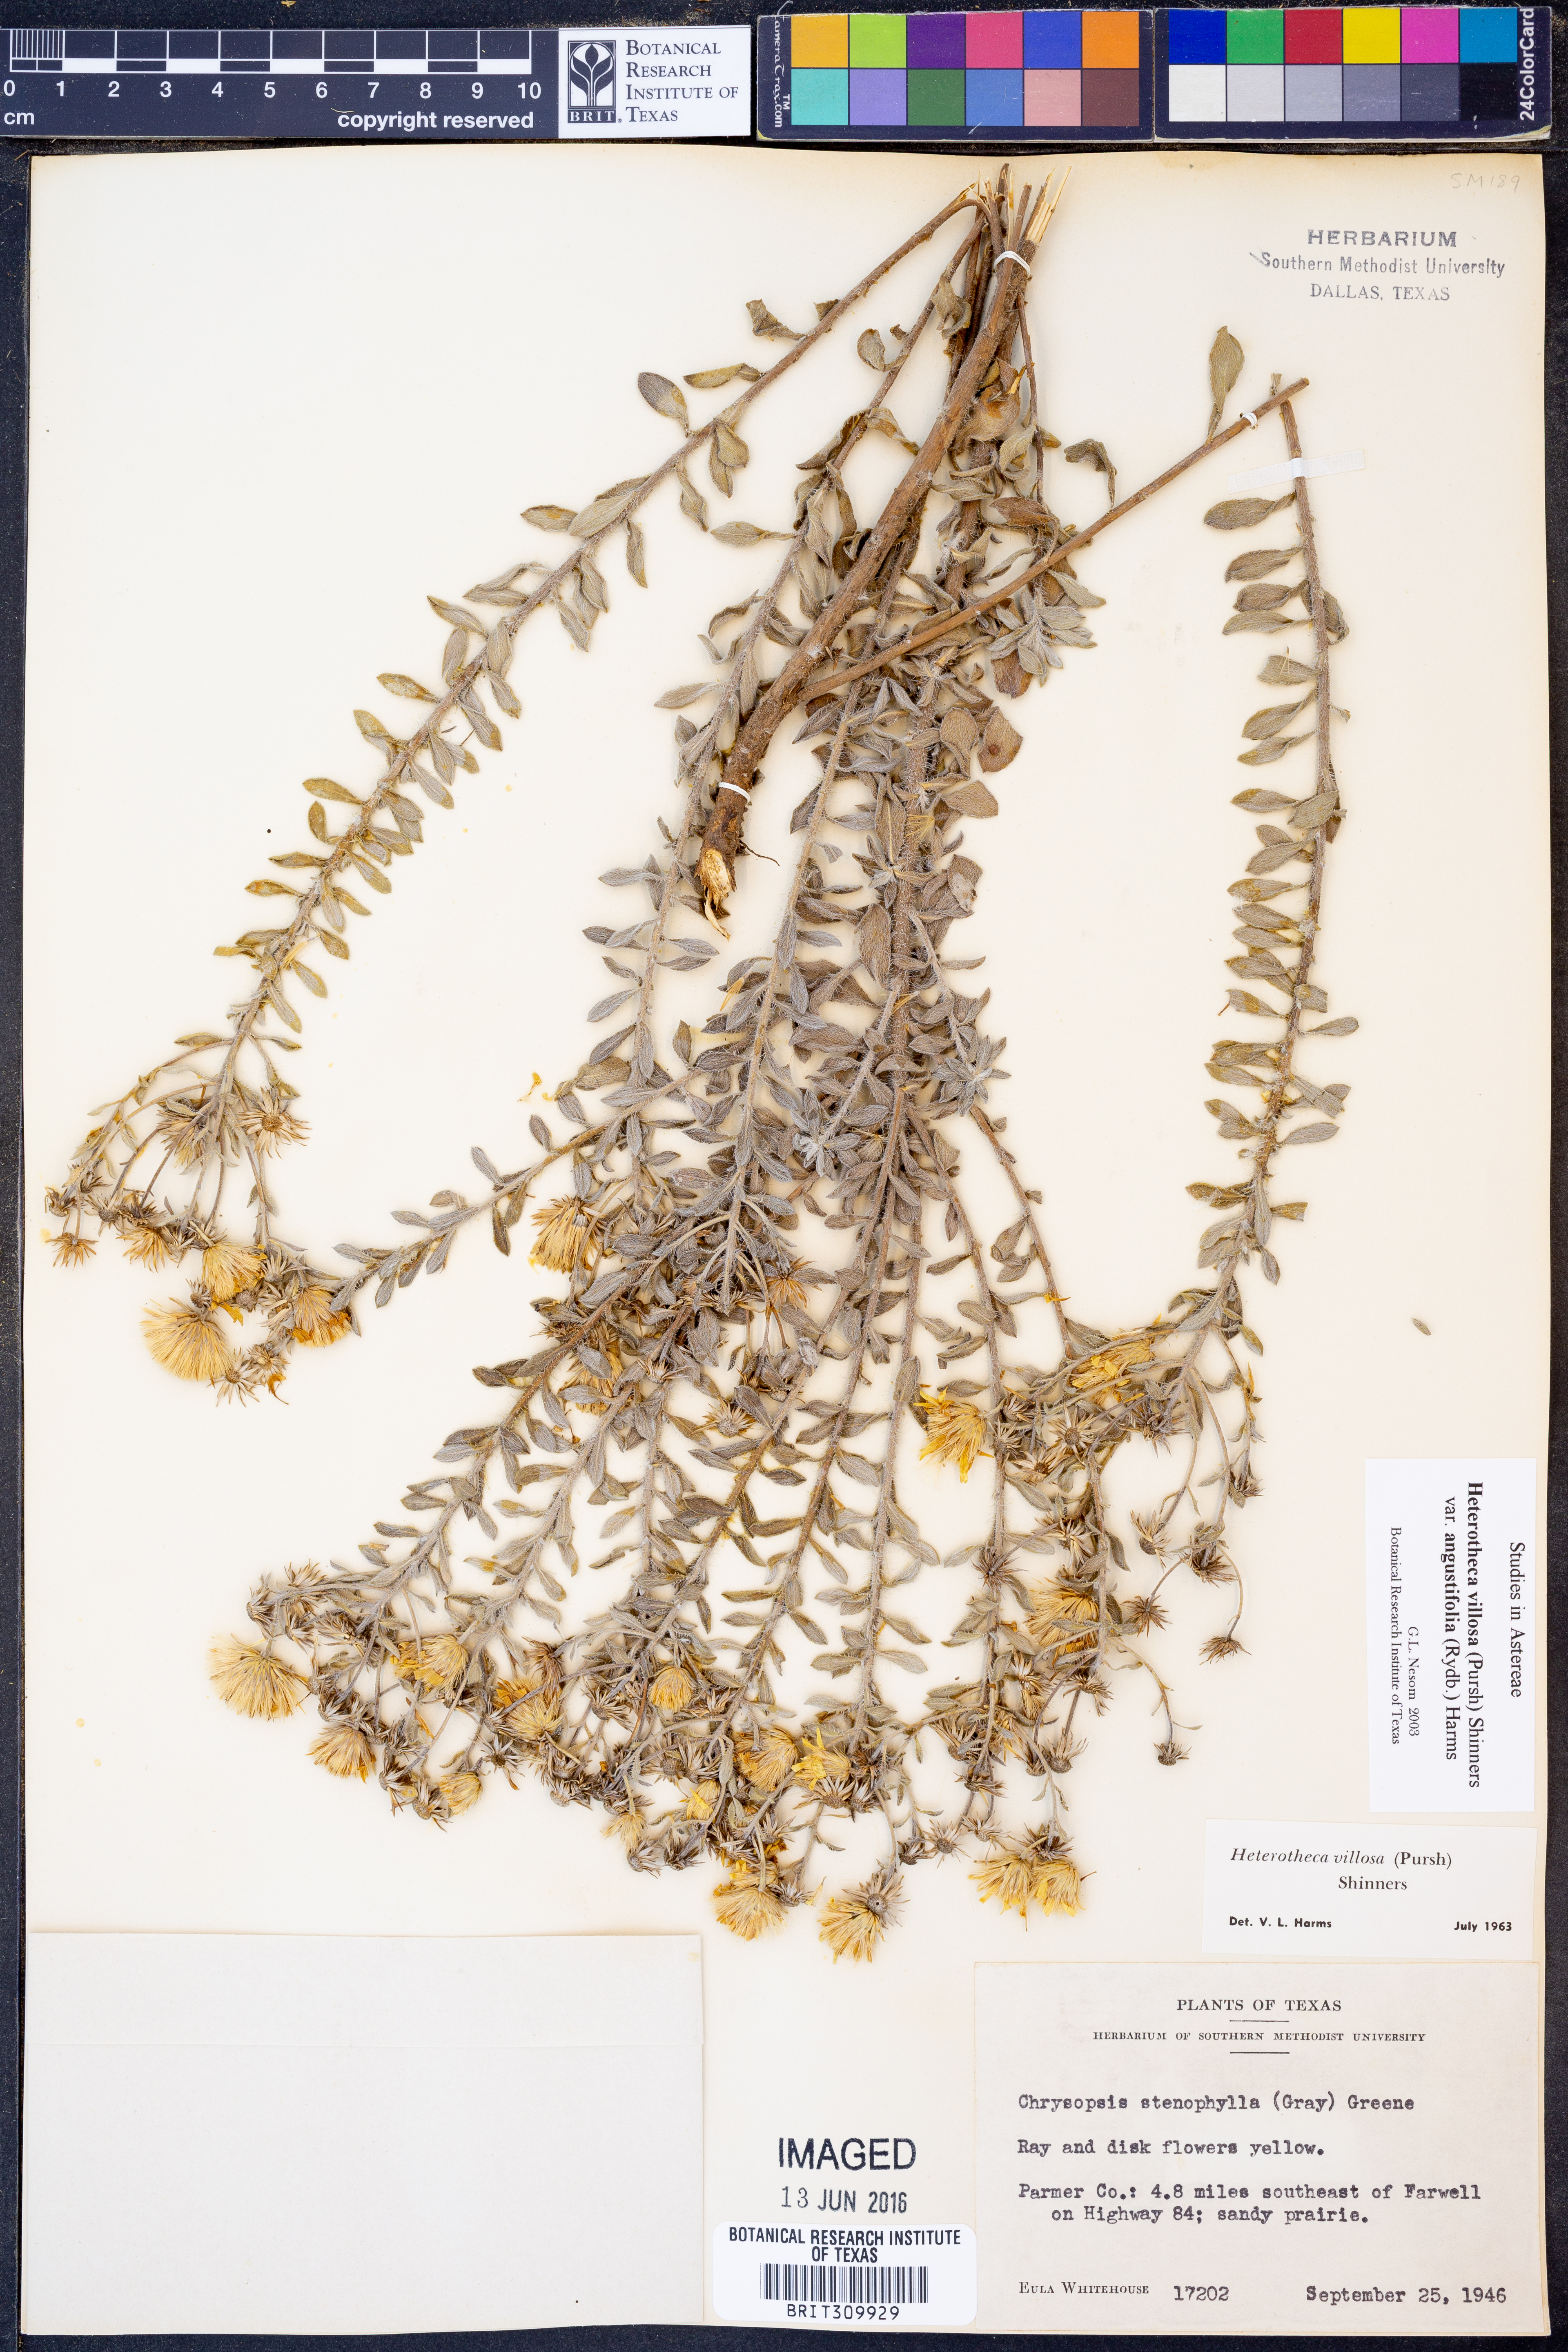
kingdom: Plantae
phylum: Tracheophyta
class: Magnoliopsida
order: Asterales
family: Asteraceae
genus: Heterotheca
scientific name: Heterotheca angustifolia
